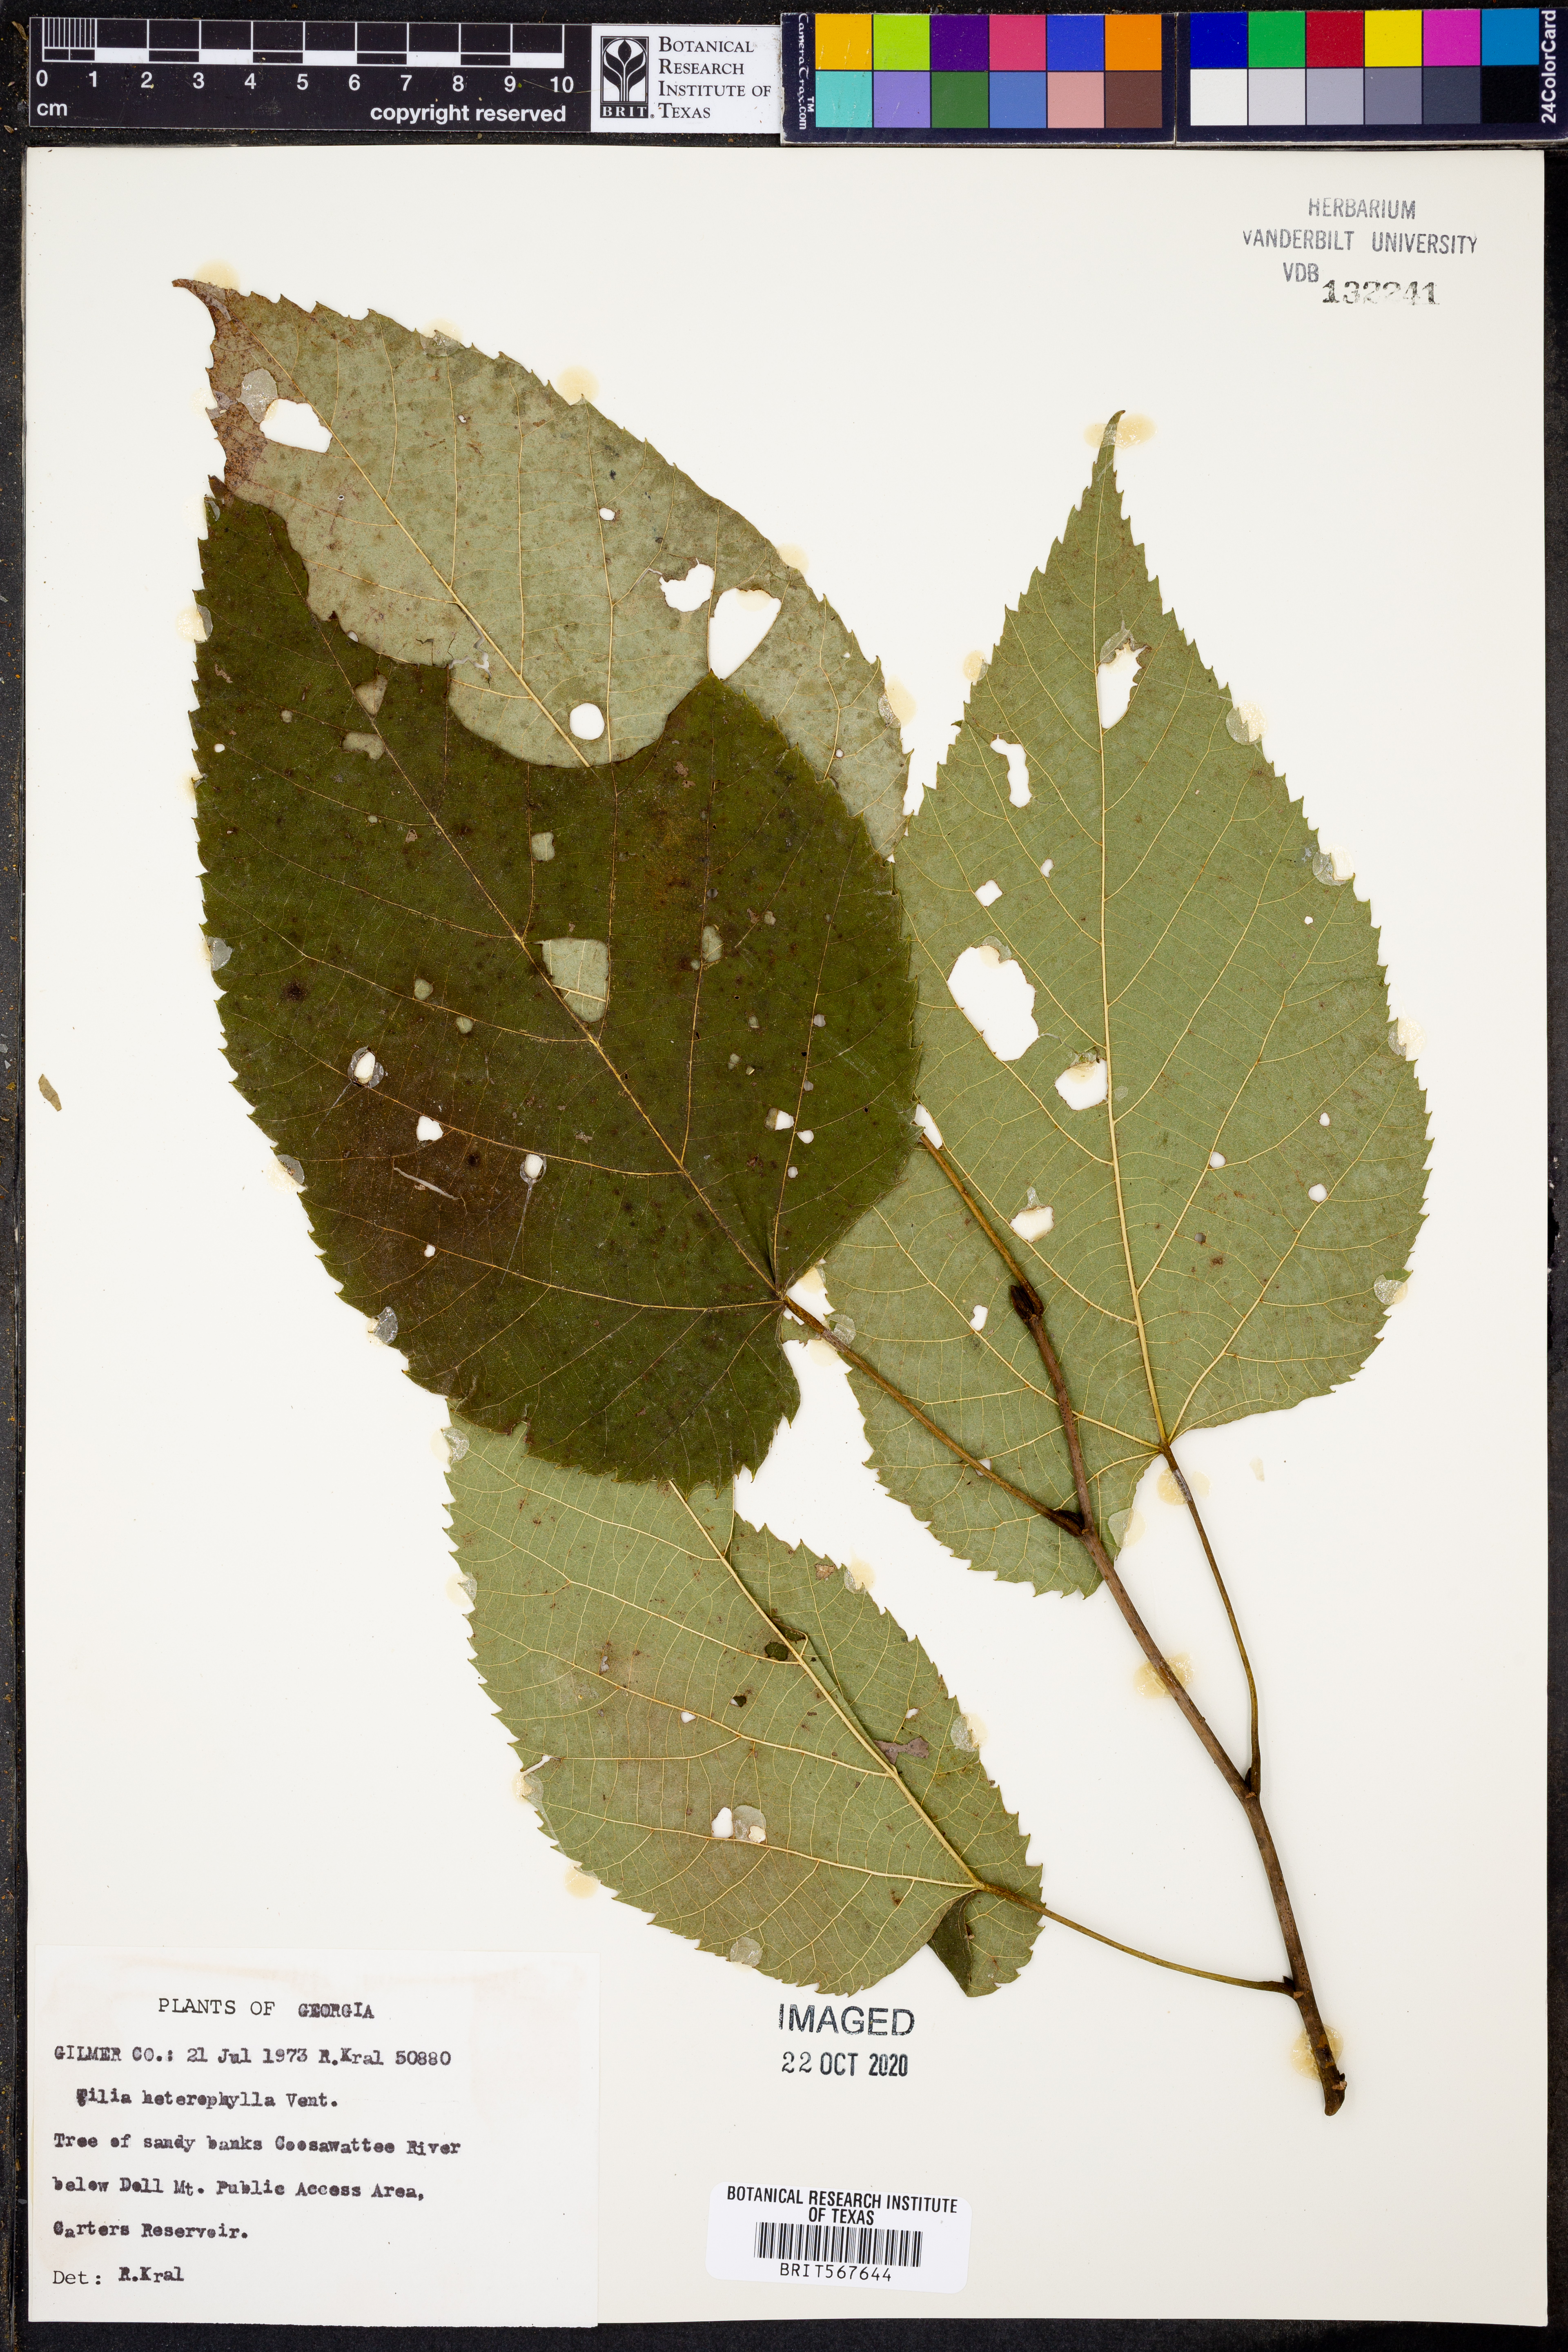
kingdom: Plantae
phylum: Tracheophyta
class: Magnoliopsida
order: Malvales
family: Malvaceae
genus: Tilia
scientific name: Tilia americana
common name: Basswood
